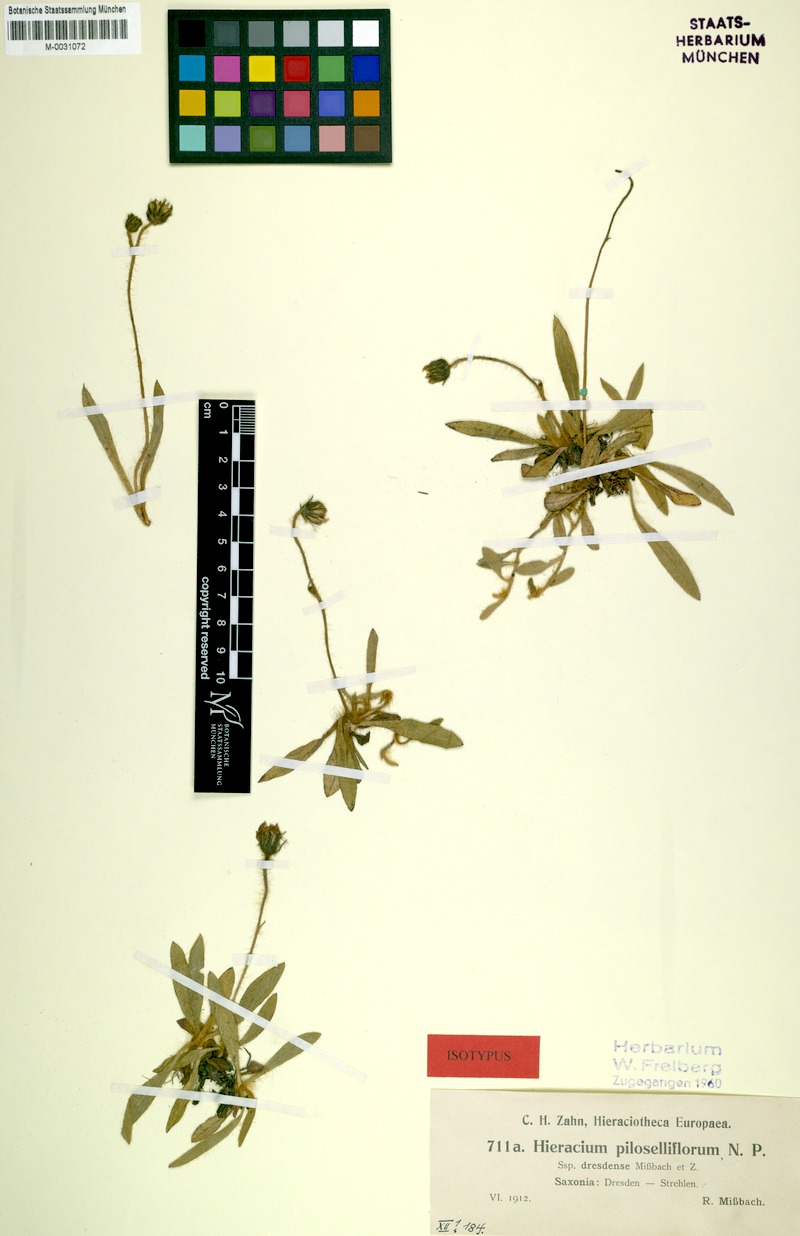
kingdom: Plantae
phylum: Tracheophyta
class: Magnoliopsida
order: Asterales
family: Asteraceae
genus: Pilosella
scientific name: Pilosella piloselliflora
